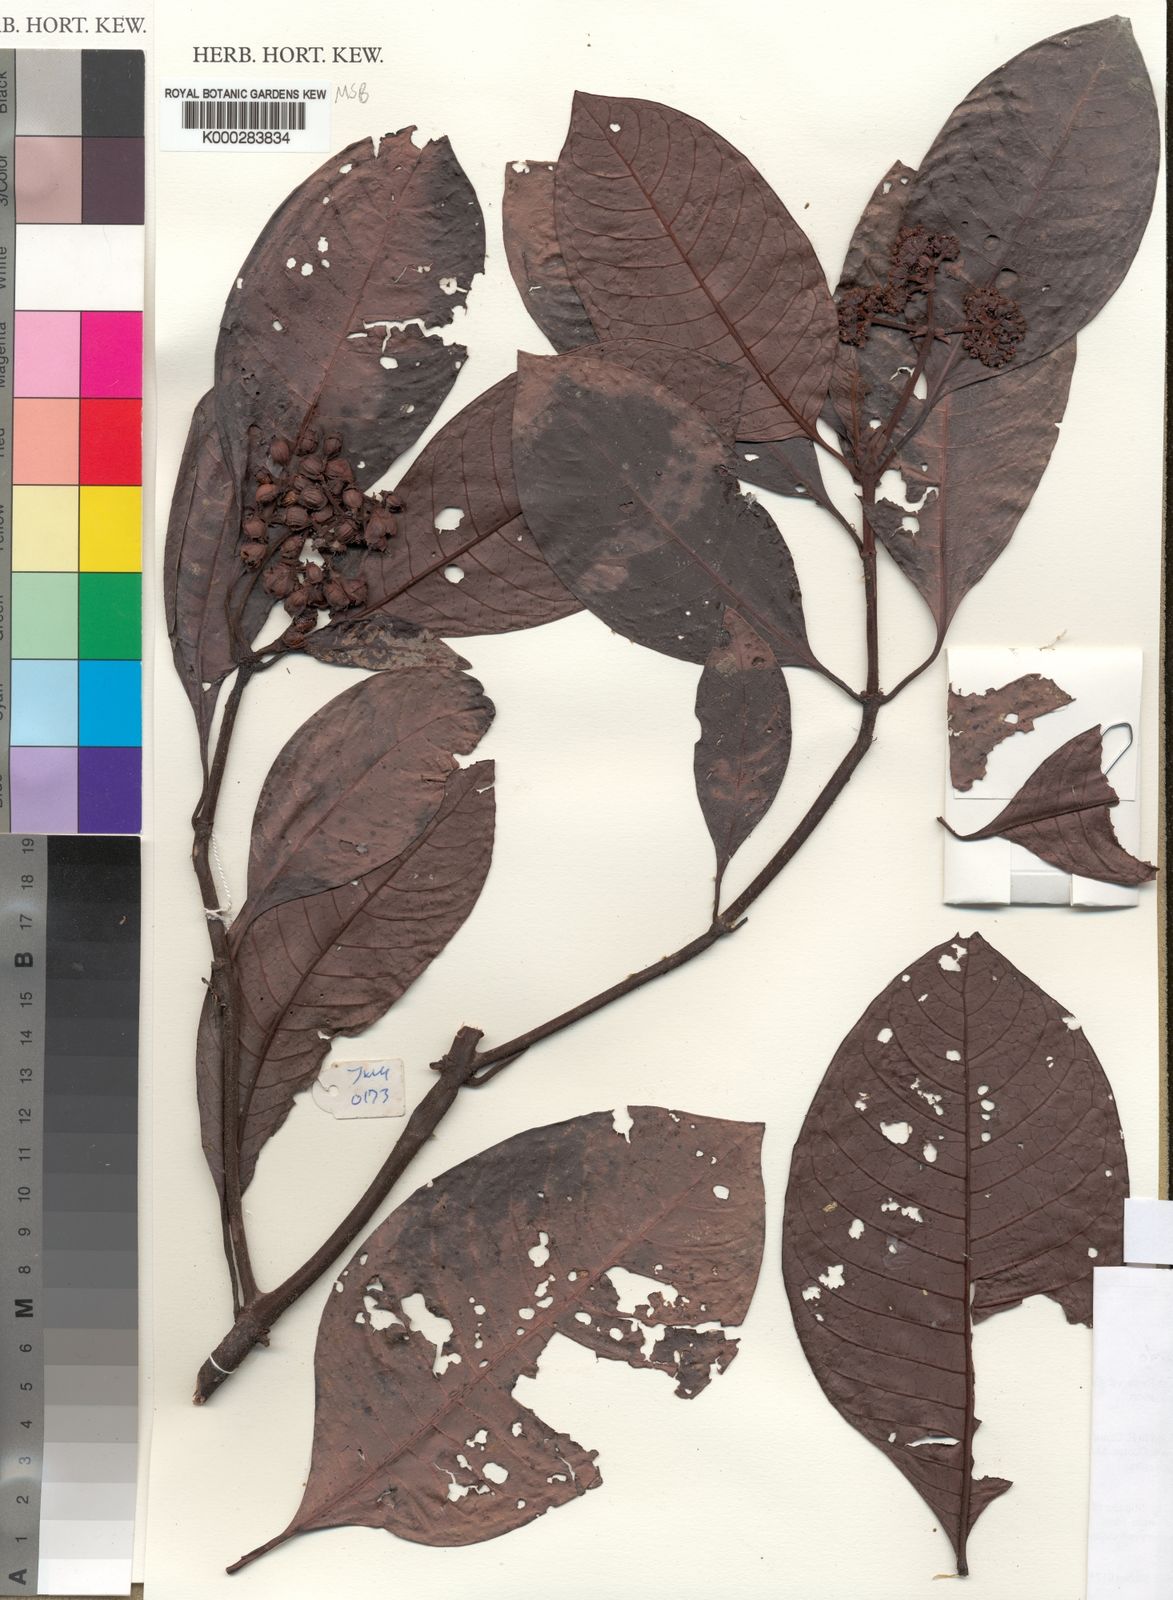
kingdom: Plantae
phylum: Tracheophyta
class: Magnoliopsida
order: Gentianales
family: Rubiaceae
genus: Psychotria
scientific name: Psychotria brucei
